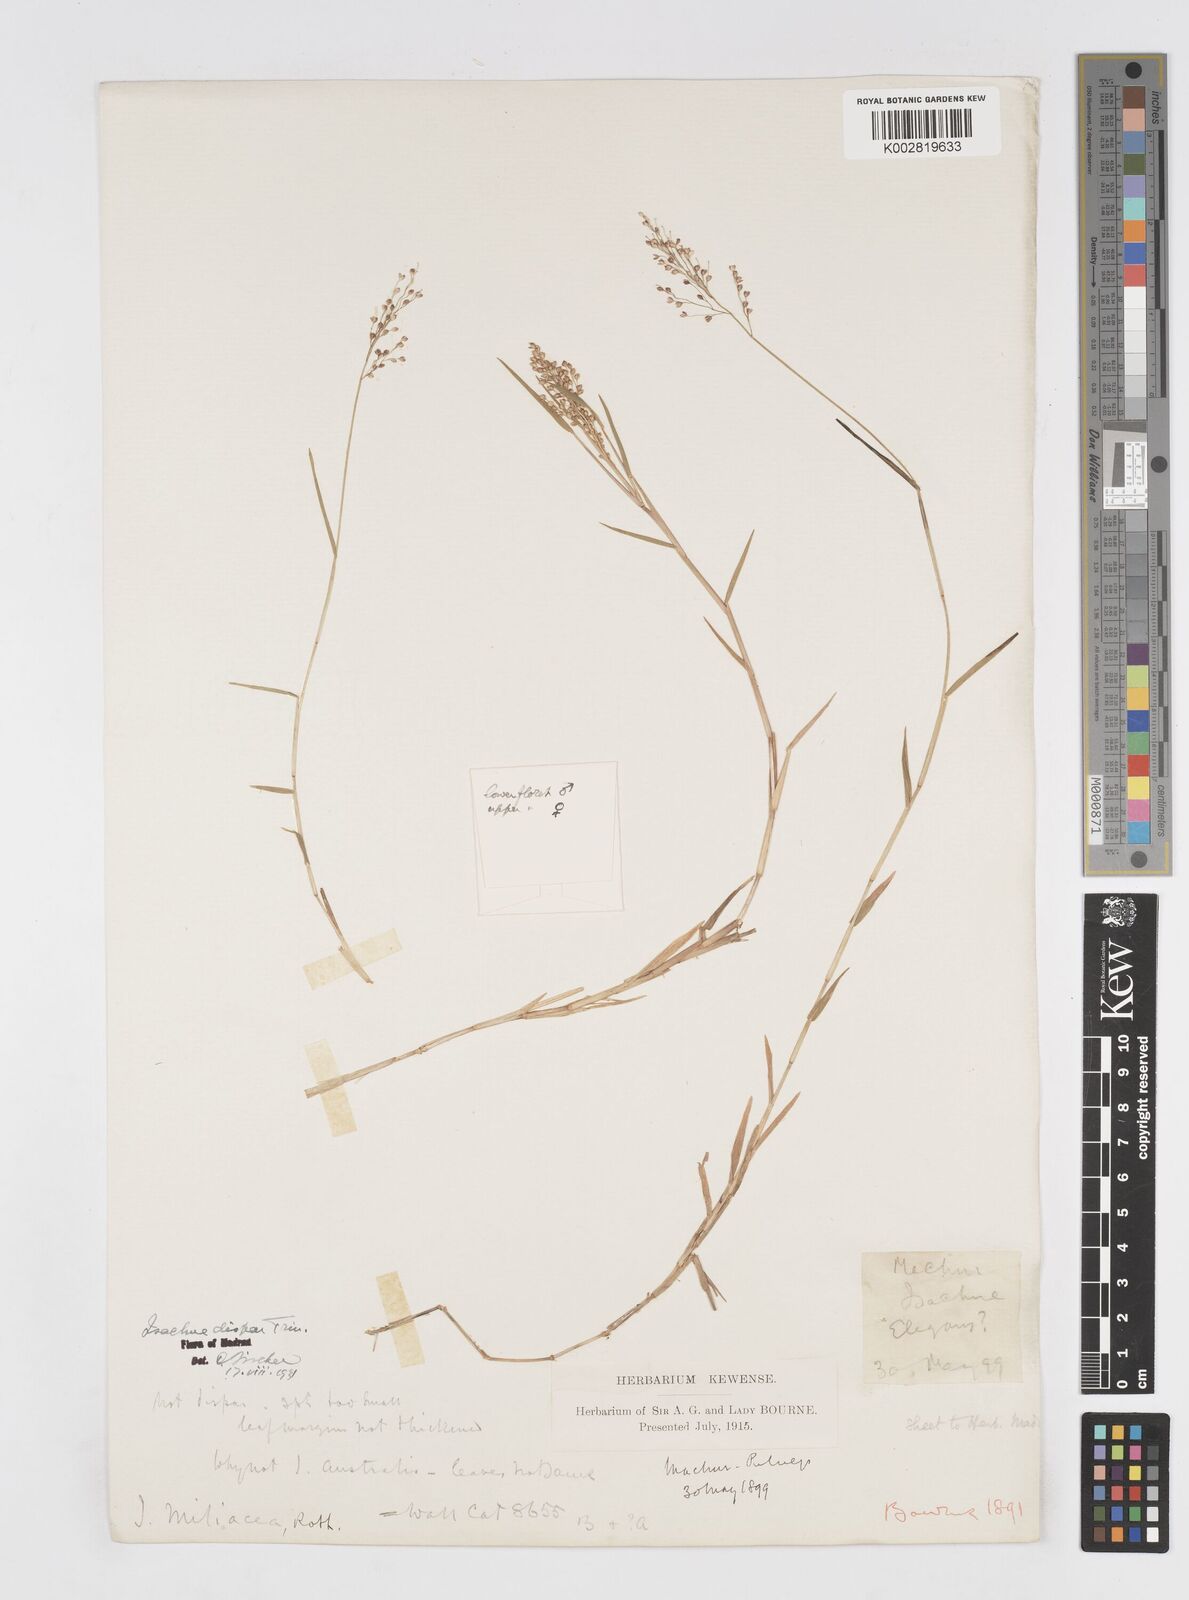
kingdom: Plantae
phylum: Tracheophyta
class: Liliopsida
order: Poales
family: Poaceae
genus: Isachne
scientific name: Isachne globosa
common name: Swamp millet
